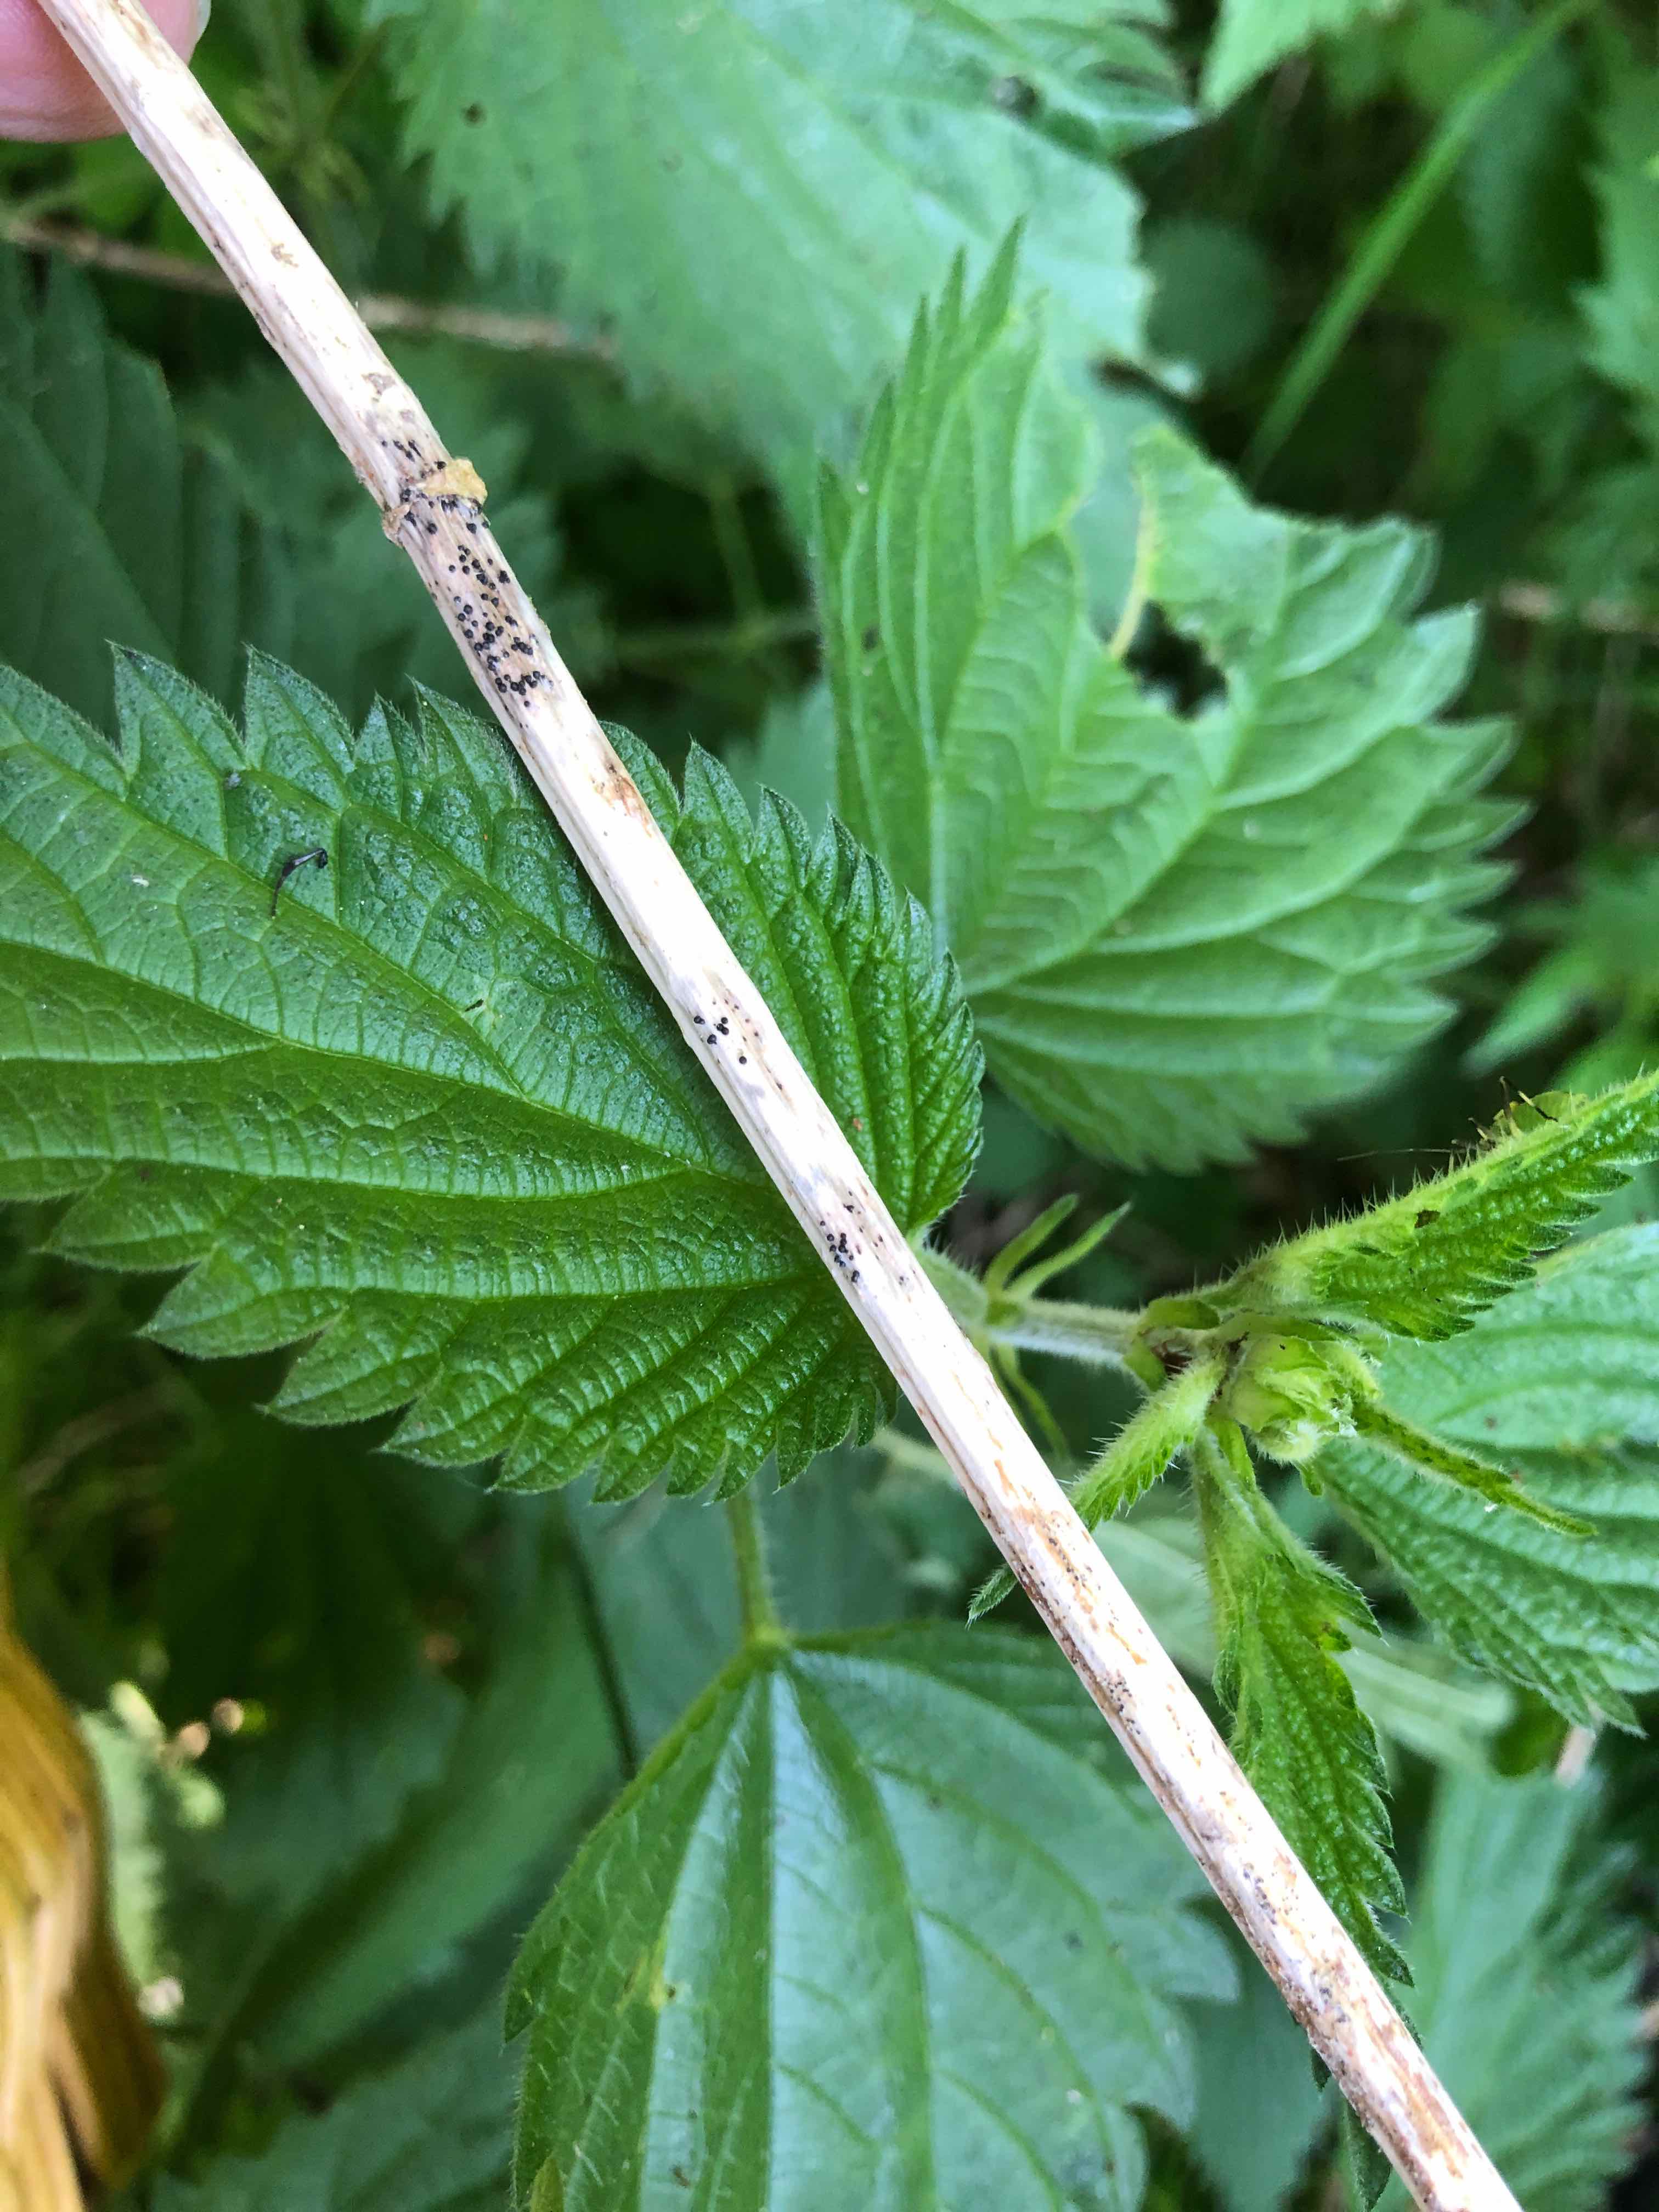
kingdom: Fungi
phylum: Ascomycota
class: Sordariomycetes
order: Diaporthales
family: Diaporthaceae
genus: Diaporthopsis
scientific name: Diaporthopsis urticae
